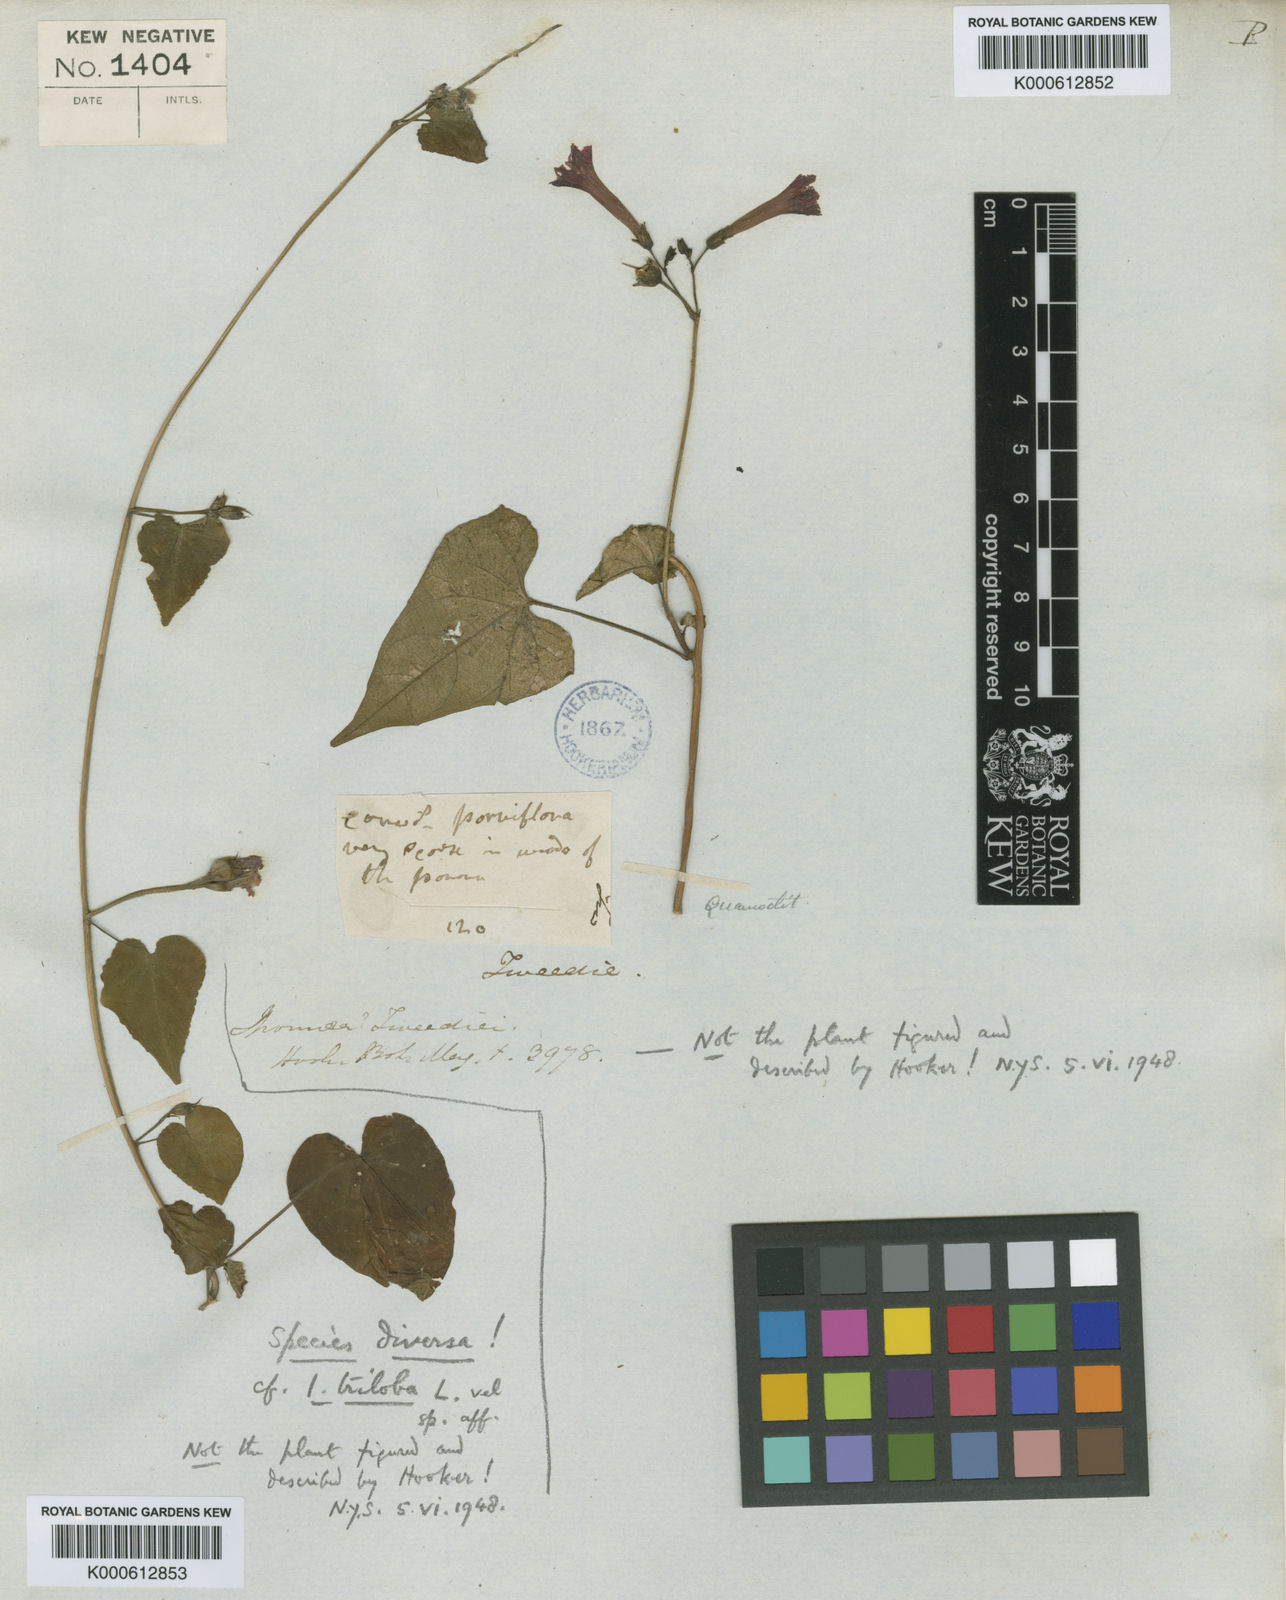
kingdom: Plantae
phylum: Tracheophyta
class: Magnoliopsida
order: Solanales
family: Convolvulaceae
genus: Ipomoea
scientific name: Ipomoea aristolochiifolia
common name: Aristolochia-leaved morning-glory
